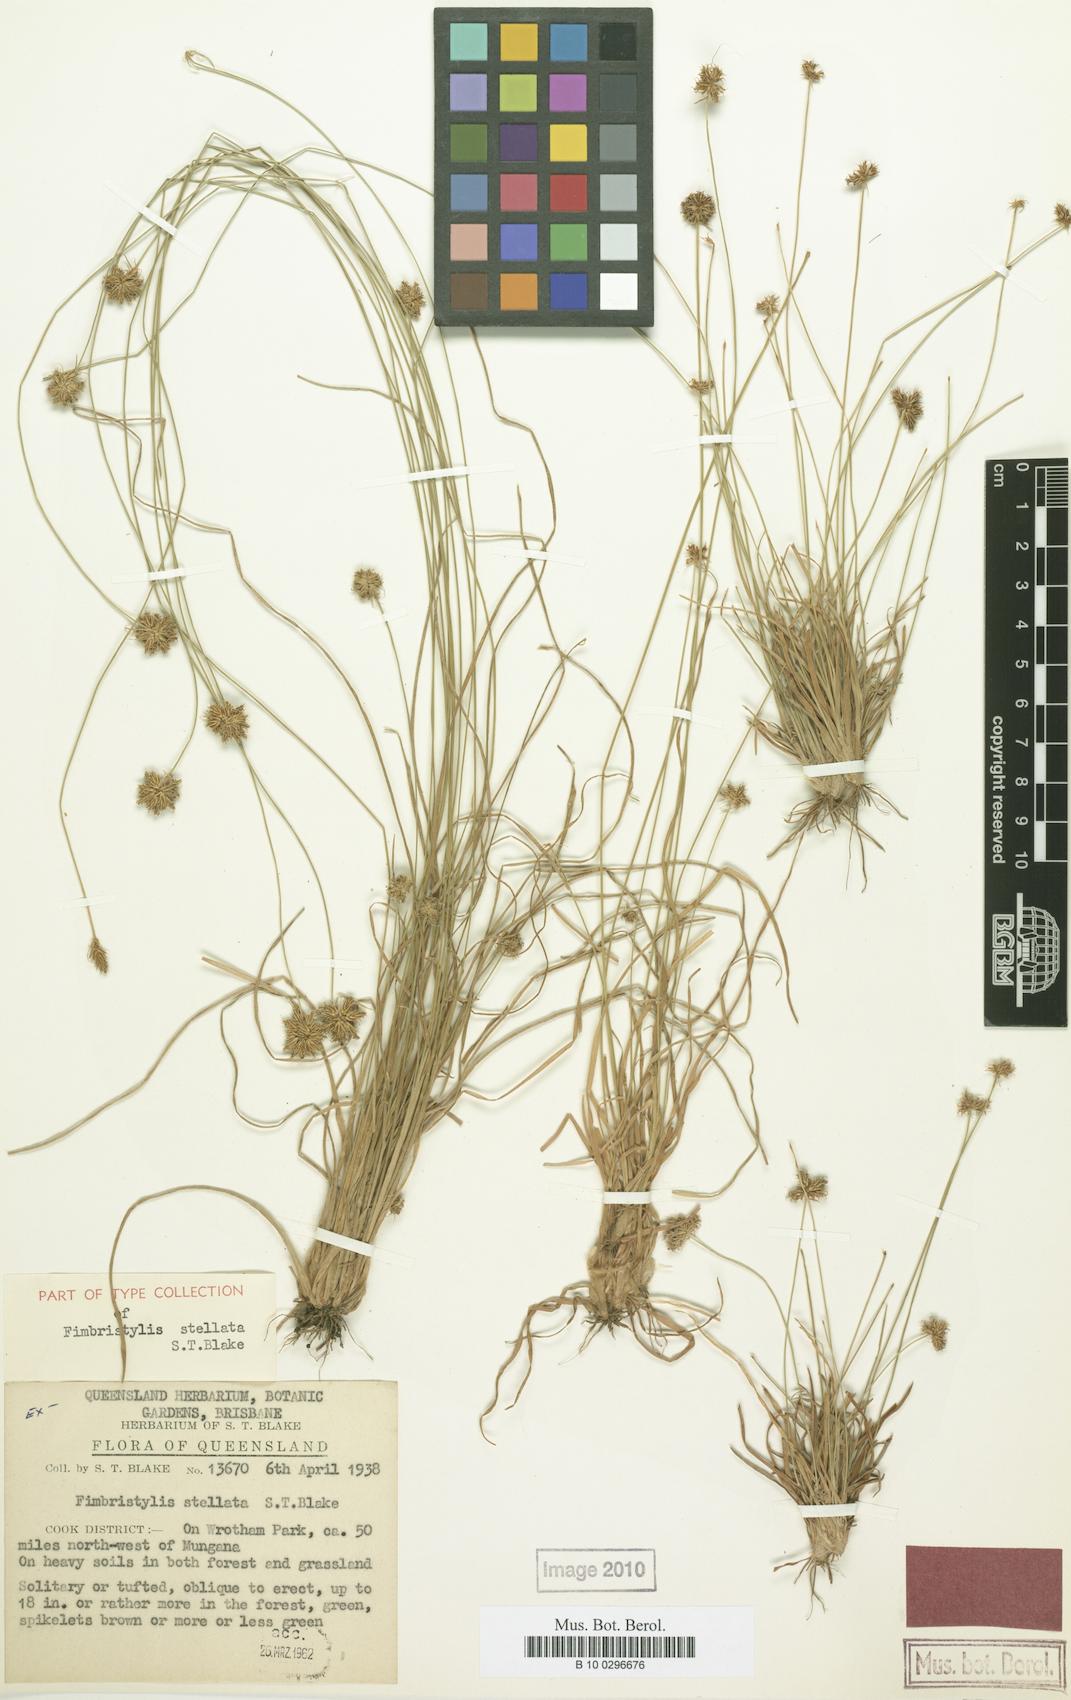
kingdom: Plantae
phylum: Tracheophyta
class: Liliopsida
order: Poales
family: Cyperaceae
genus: Fimbristylis
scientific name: Fimbristylis schultzii
